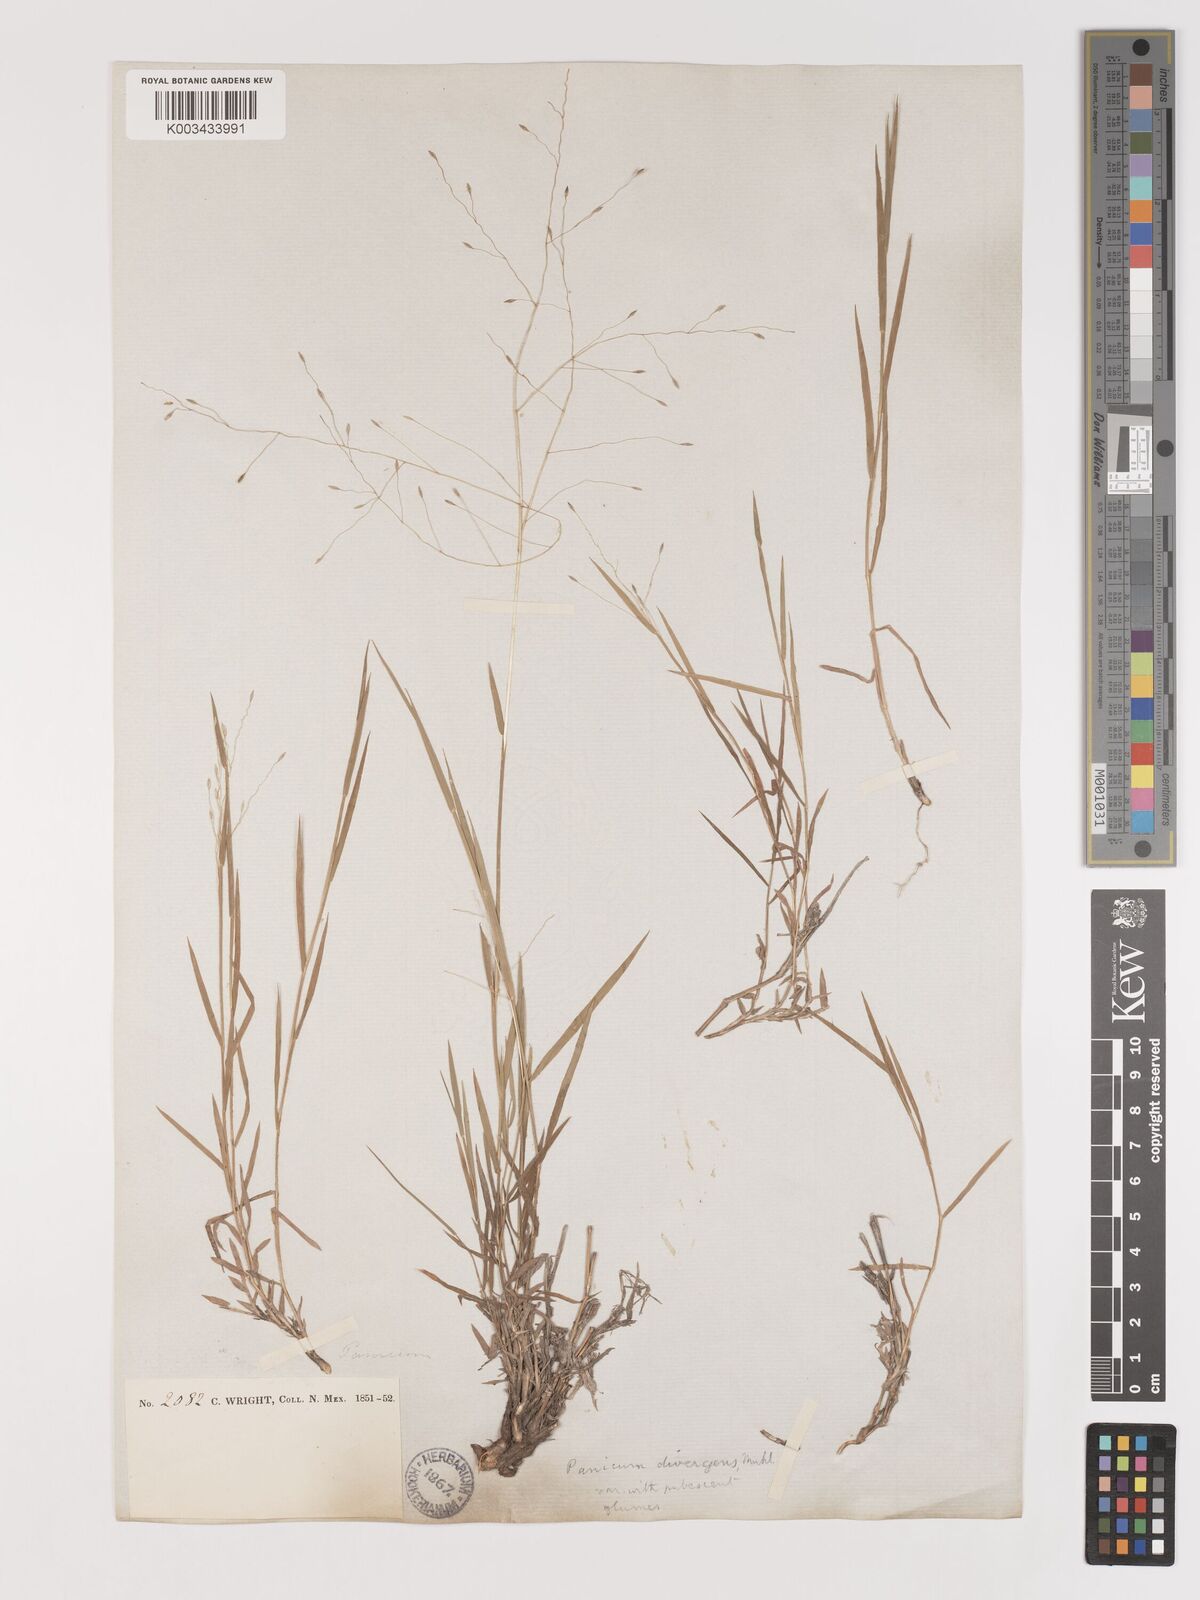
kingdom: Plantae
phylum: Tracheophyta
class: Liliopsida
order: Poales
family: Poaceae
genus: Digitaria
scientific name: Digitaria
